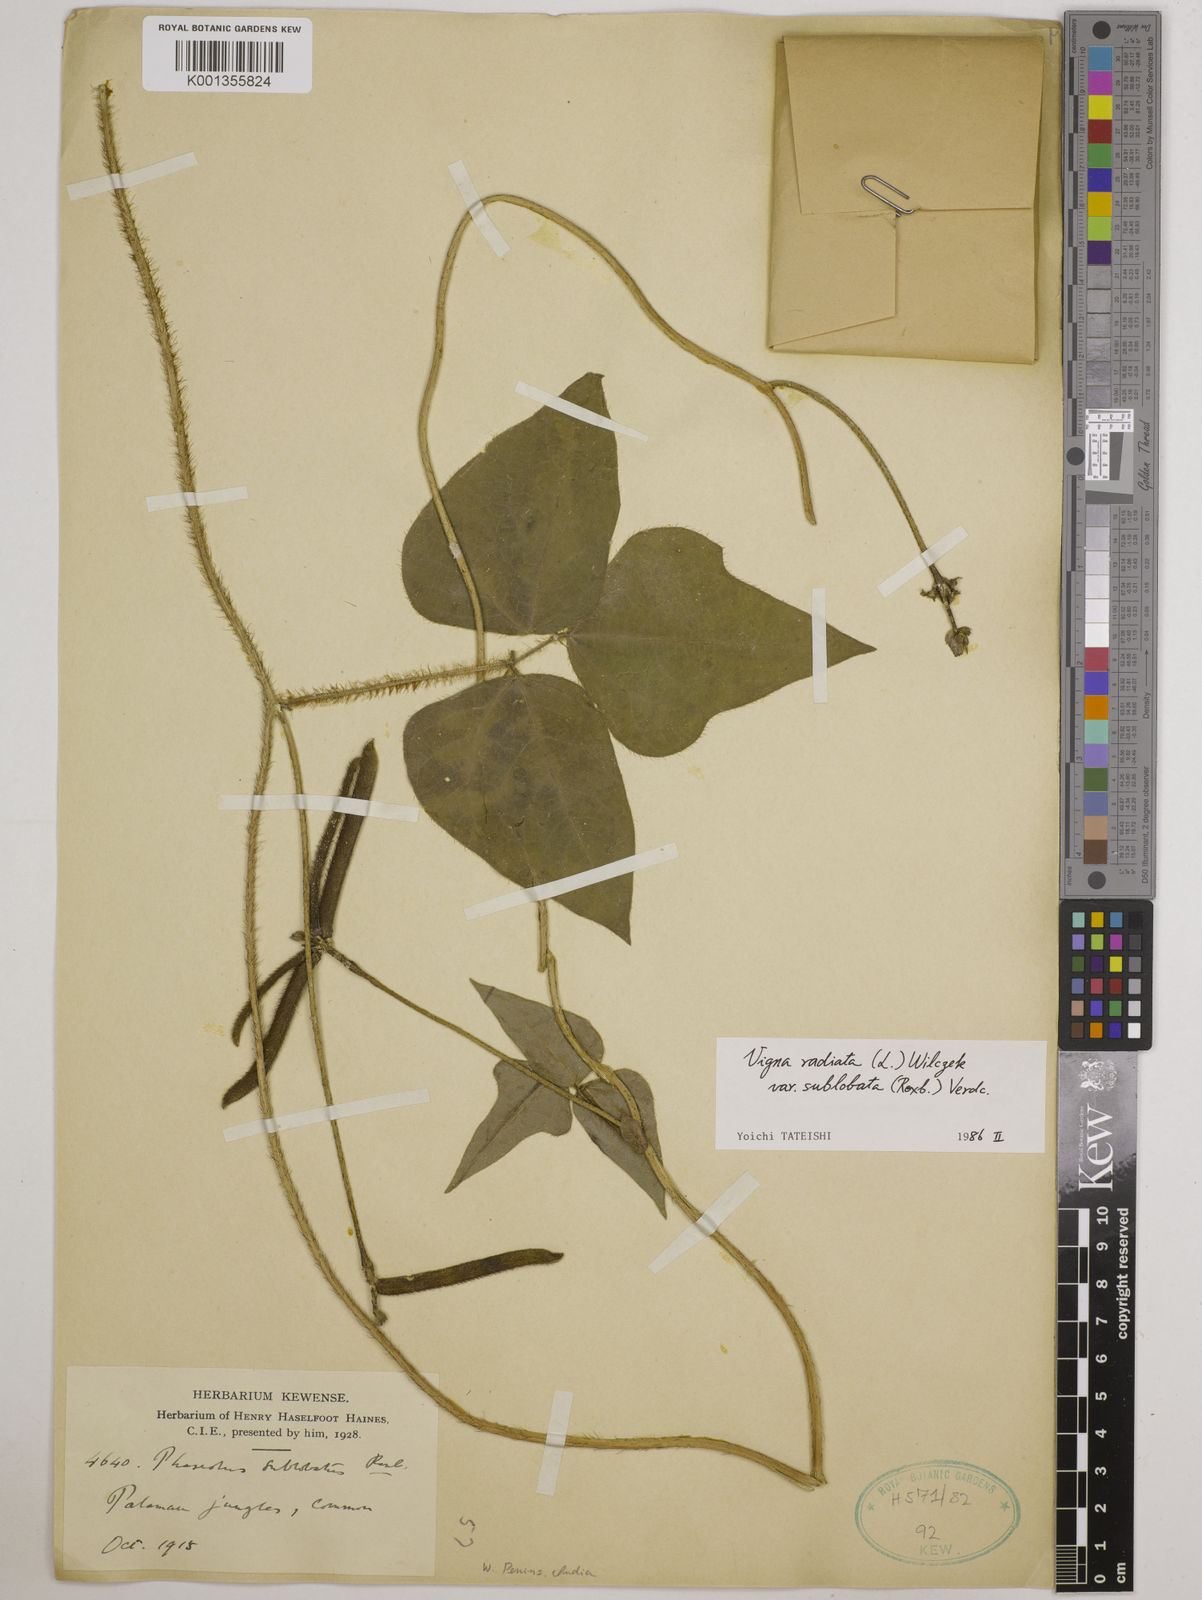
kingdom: Plantae
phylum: Tracheophyta
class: Magnoliopsida
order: Fabales
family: Fabaceae
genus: Vigna
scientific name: Vigna radiata
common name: Mung-bean
